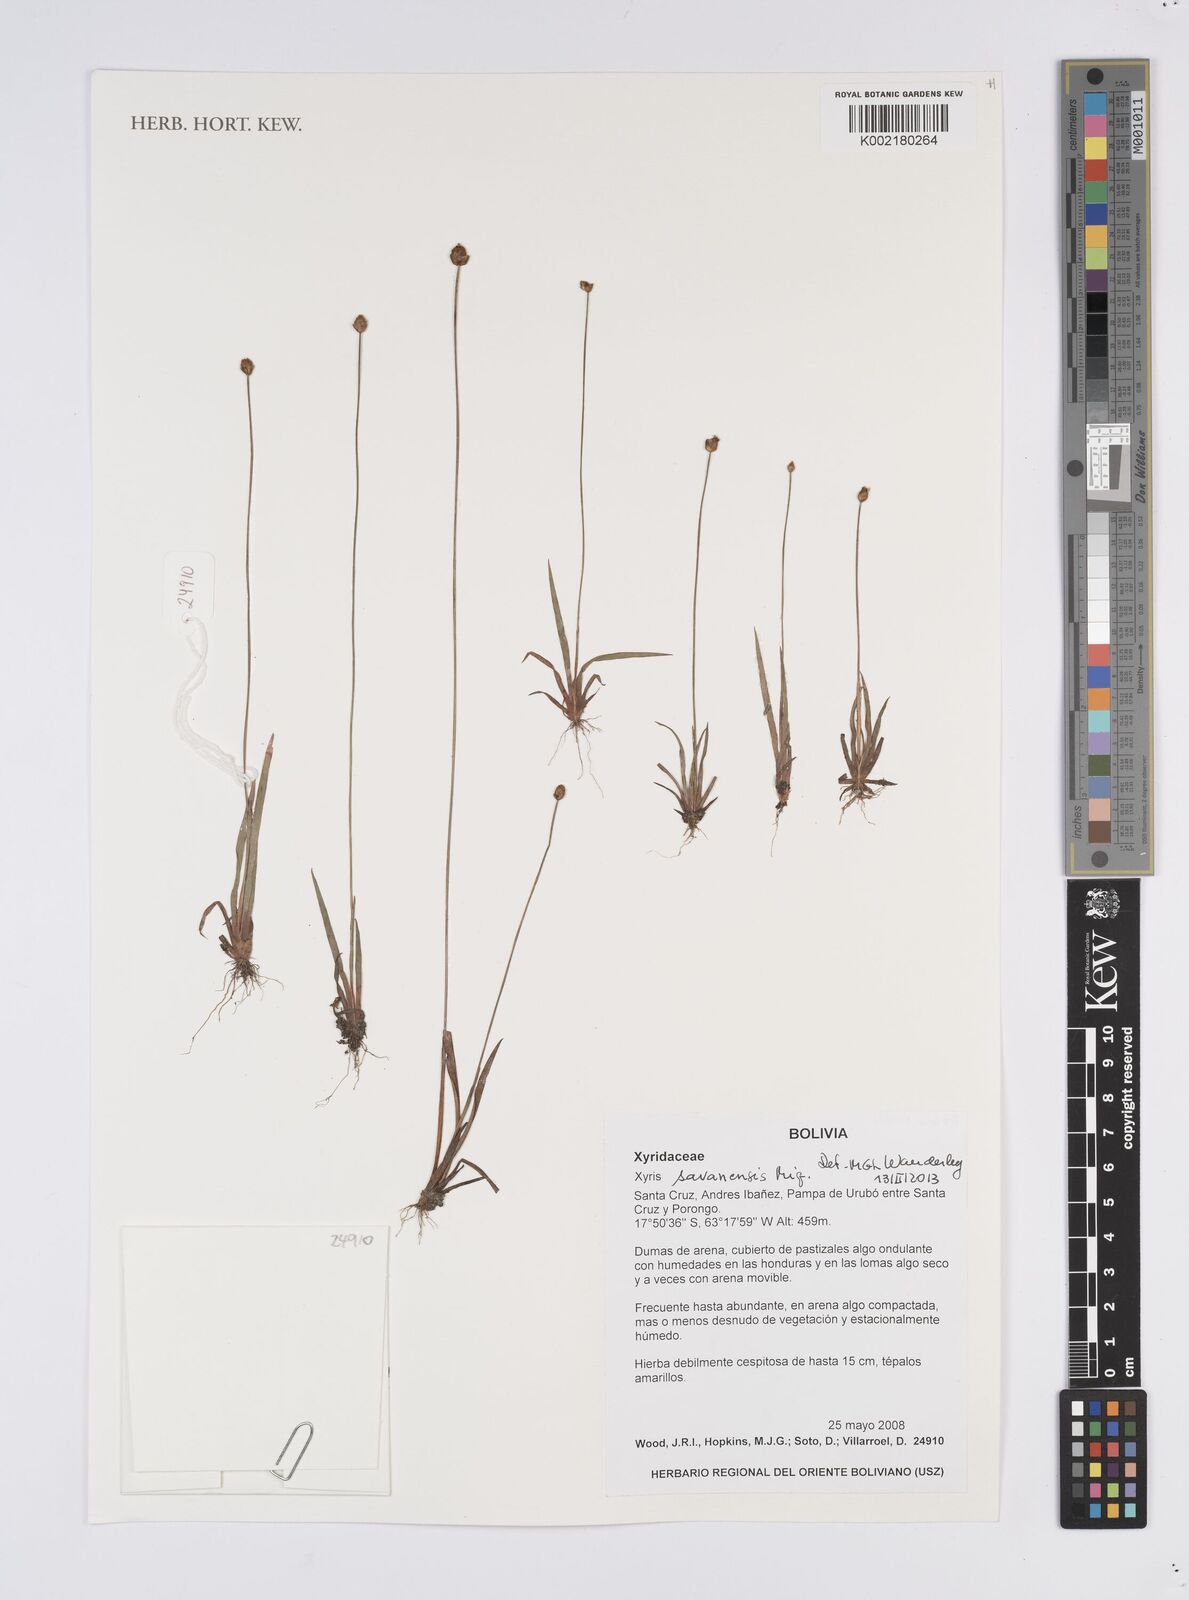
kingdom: Plantae
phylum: Tracheophyta
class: Liliopsida
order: Poales
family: Xyridaceae
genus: Xyris
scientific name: Xyris savanensis
